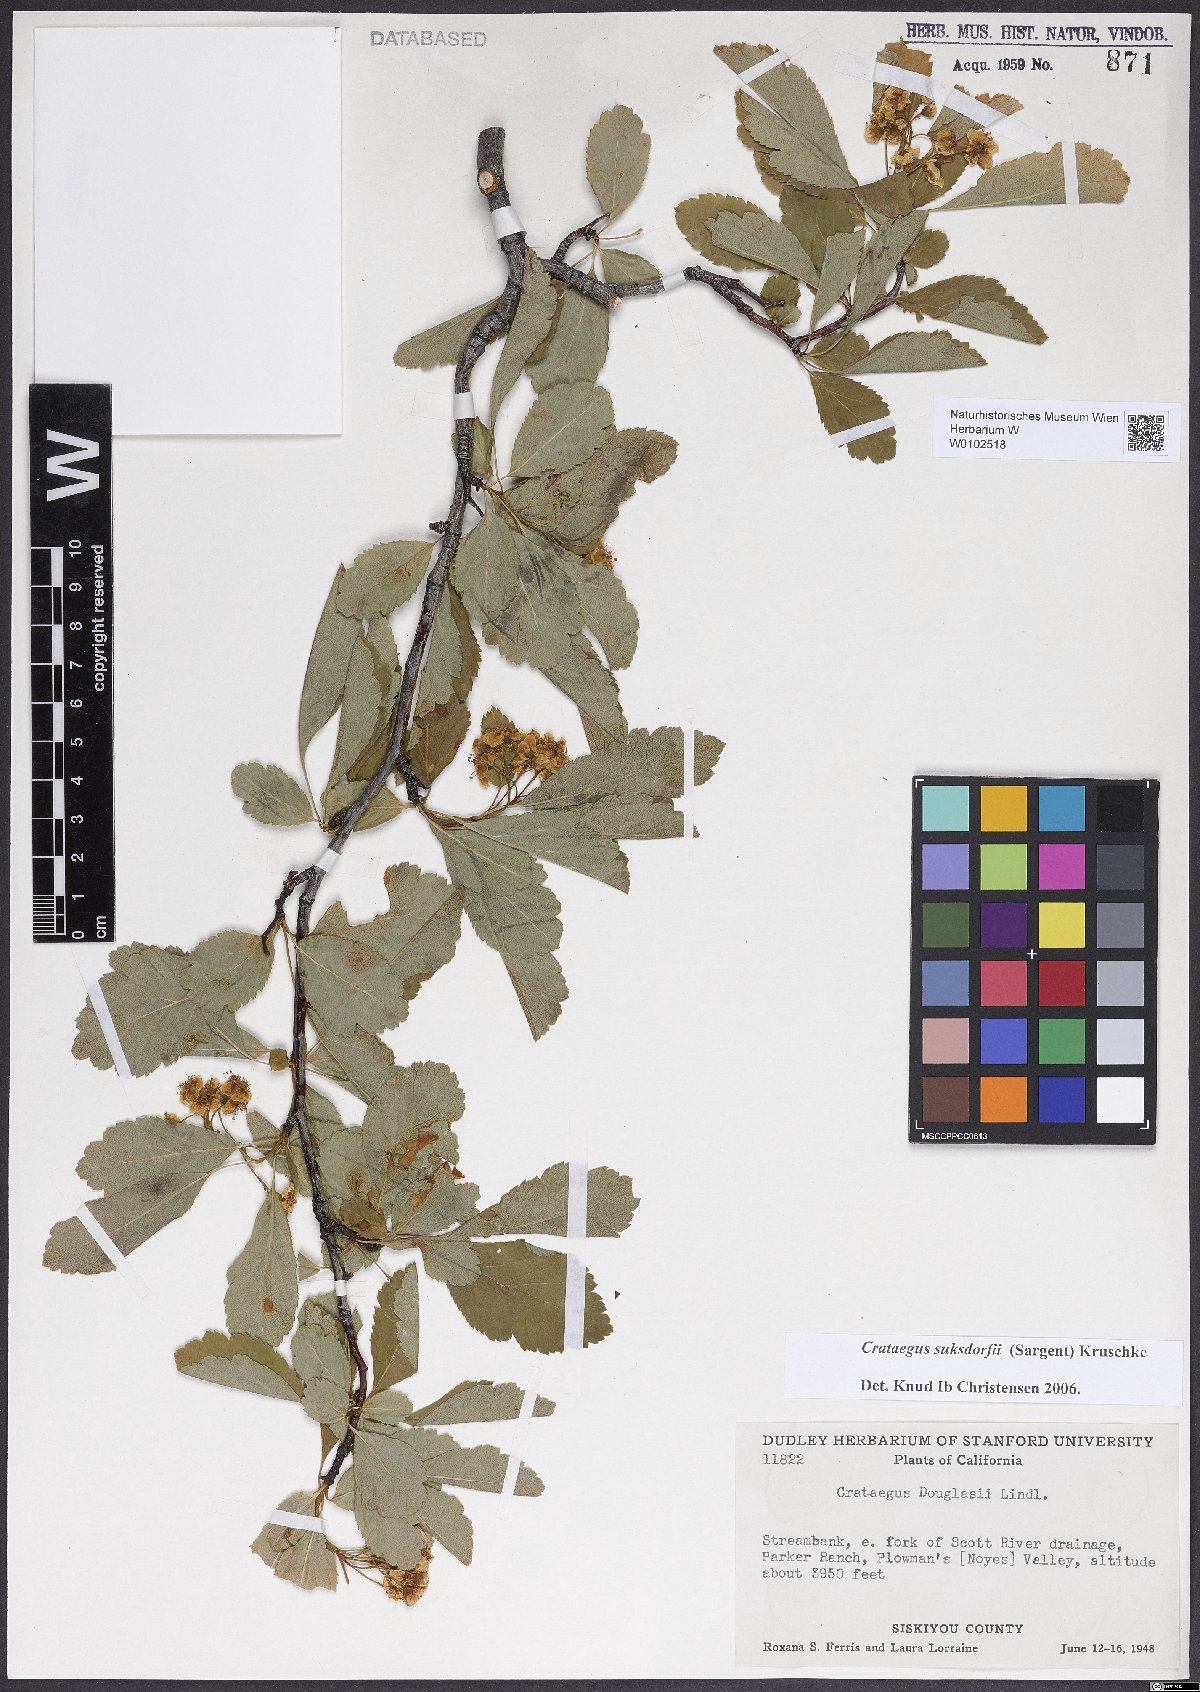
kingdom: Plantae
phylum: Tracheophyta
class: Magnoliopsida
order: Rosales
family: Rosaceae
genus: Crataegus
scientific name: Crataegus gaylussacia
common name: Huckleberry hawthorn
